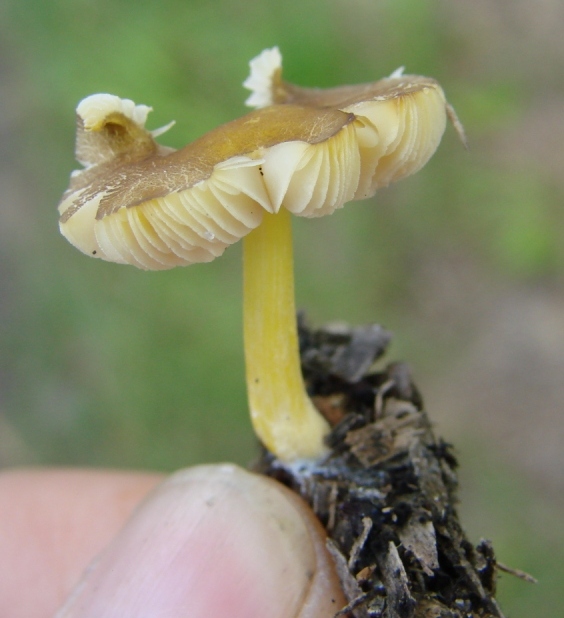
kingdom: Fungi
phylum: Basidiomycota
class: Agaricomycetes
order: Agaricales
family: Pluteaceae
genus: Pluteus
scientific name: Pluteus romellii
